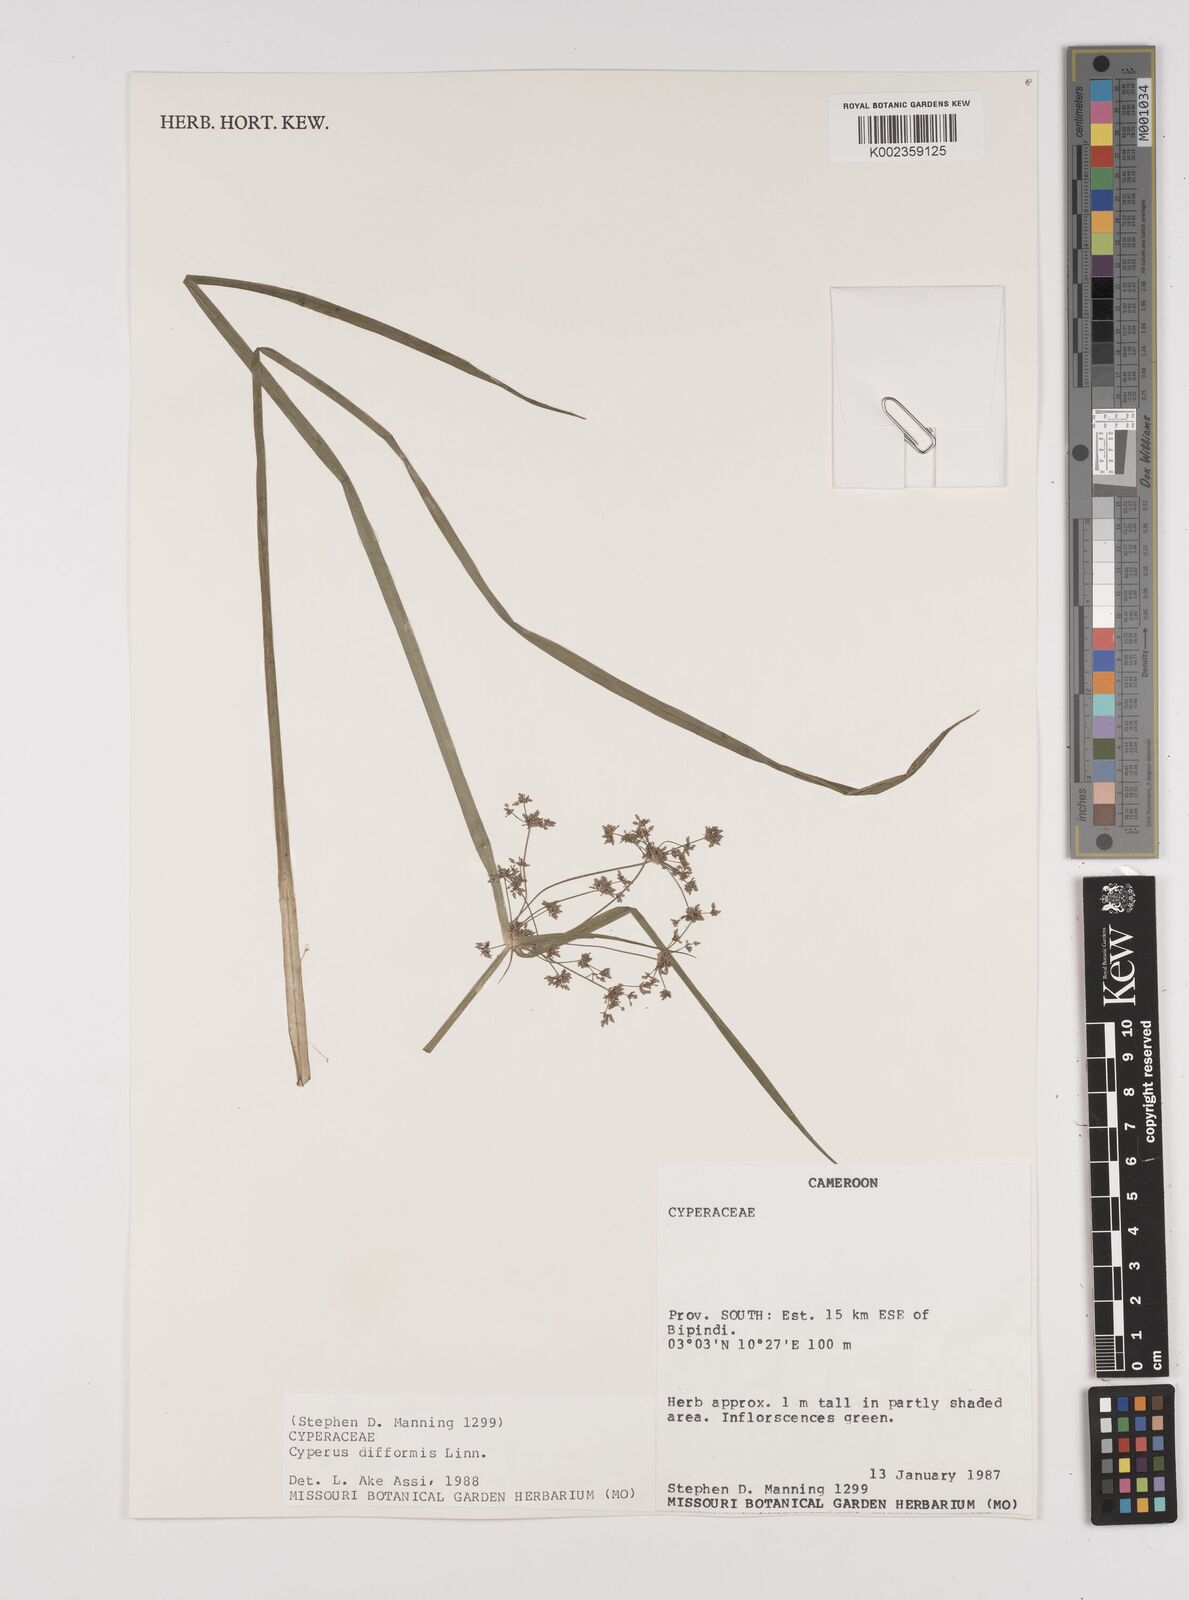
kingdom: Plantae
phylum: Tracheophyta
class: Liliopsida
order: Poales
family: Cyperaceae
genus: Cyperus
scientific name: Cyperus difformis
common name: Variable flatsedge
